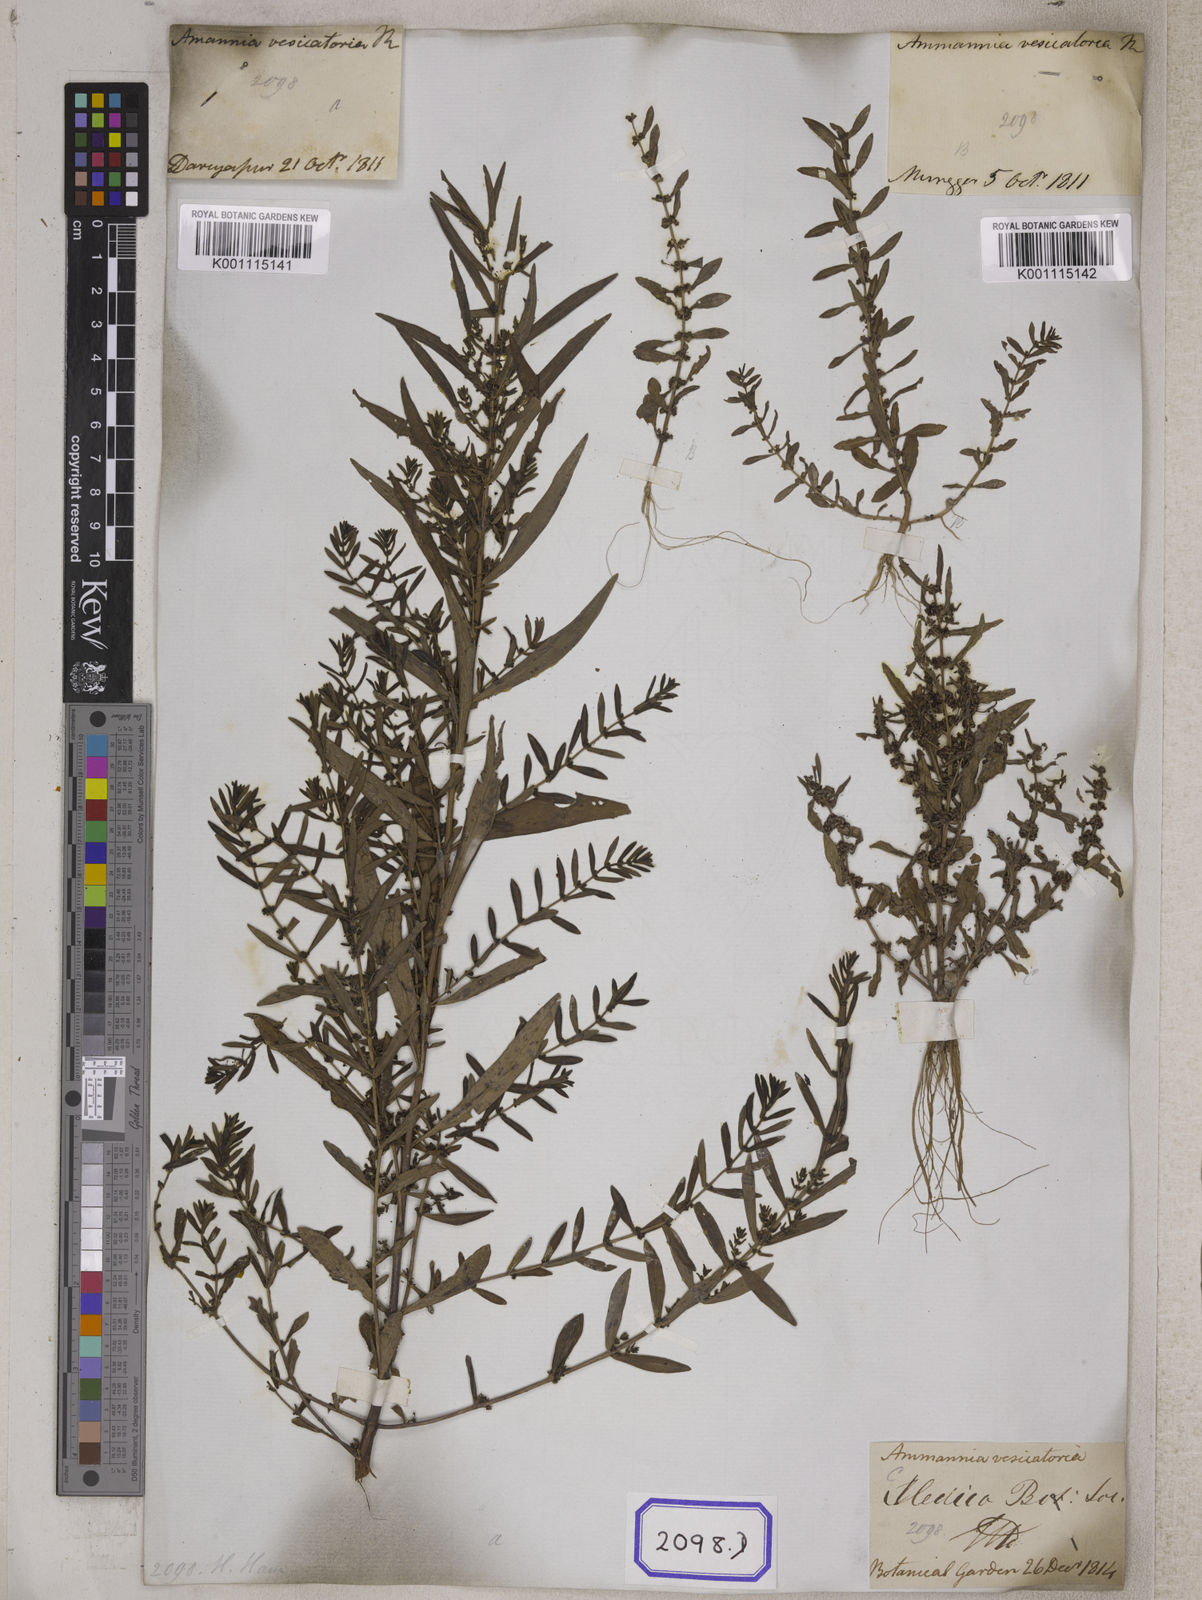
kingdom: Plantae
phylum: Tracheophyta
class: Magnoliopsida
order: Myrtales
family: Lythraceae
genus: Ammannia
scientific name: Ammannia baccifera
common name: Blistering ammania
